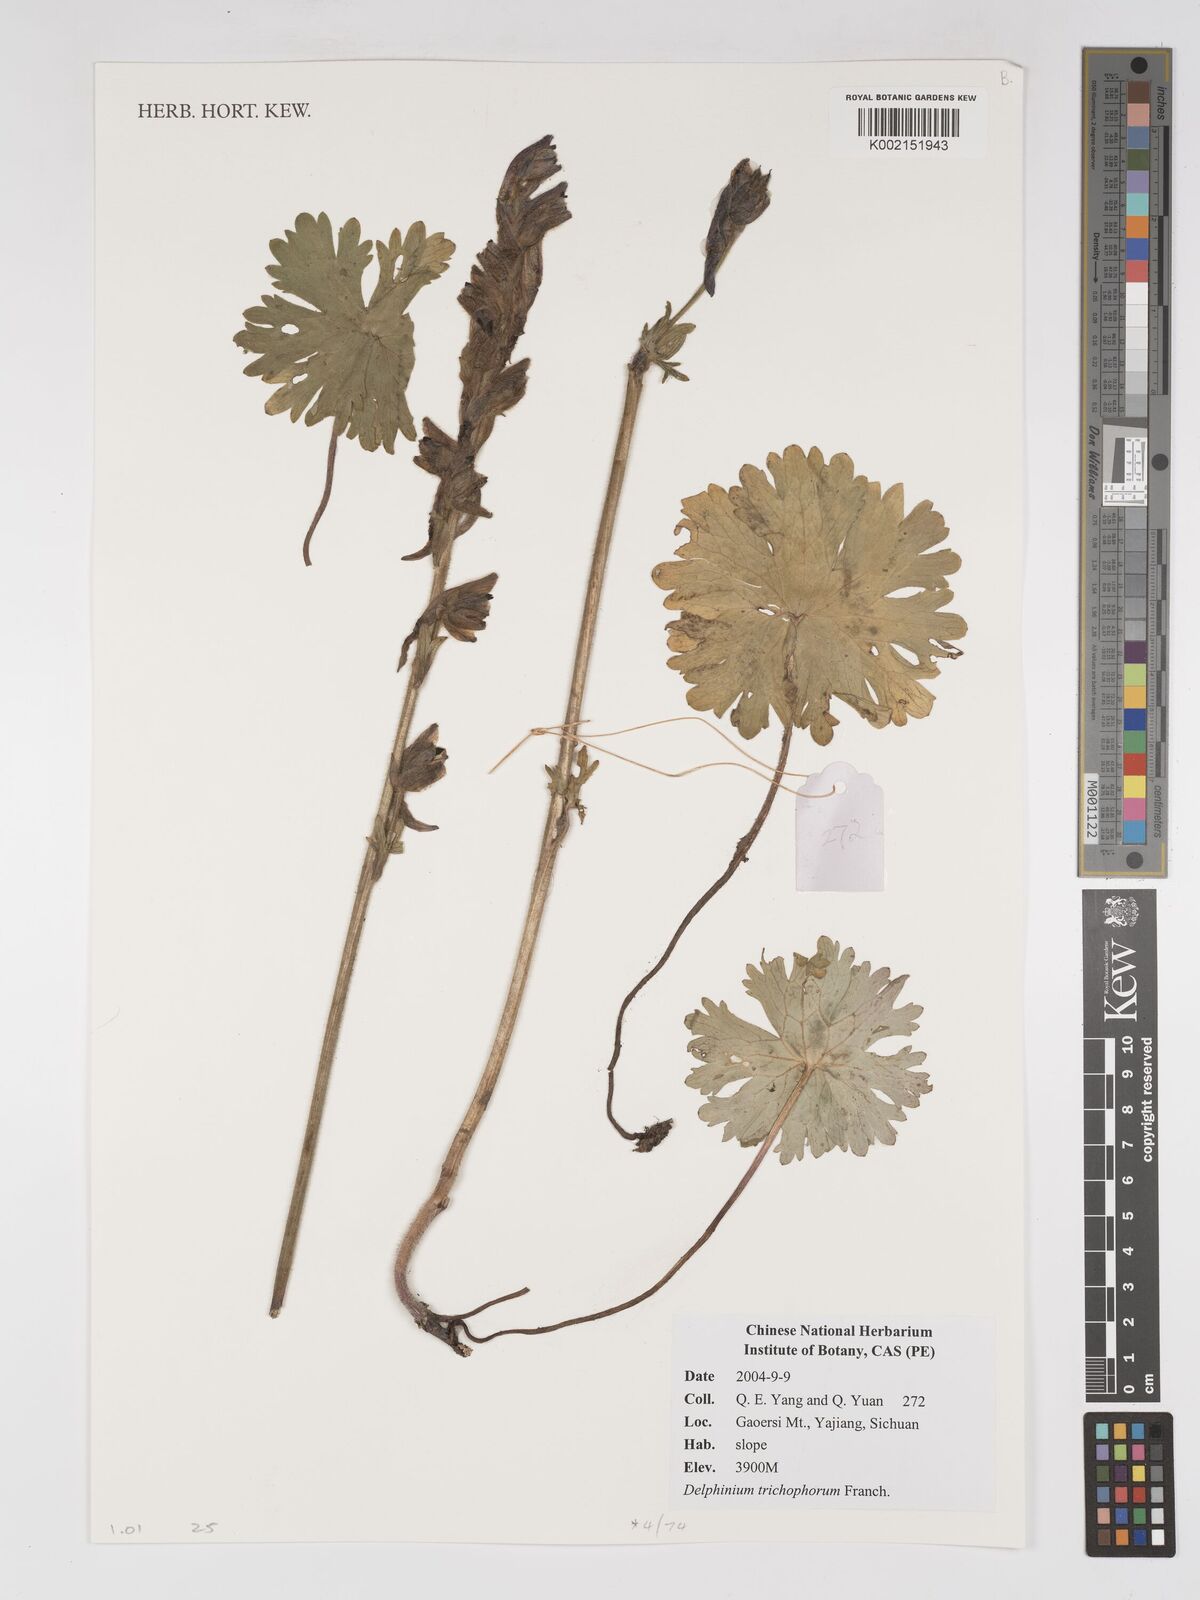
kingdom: Plantae
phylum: Tracheophyta
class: Magnoliopsida
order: Ranunculales
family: Ranunculaceae
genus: Delphinium
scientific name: Delphinium trichophorum
